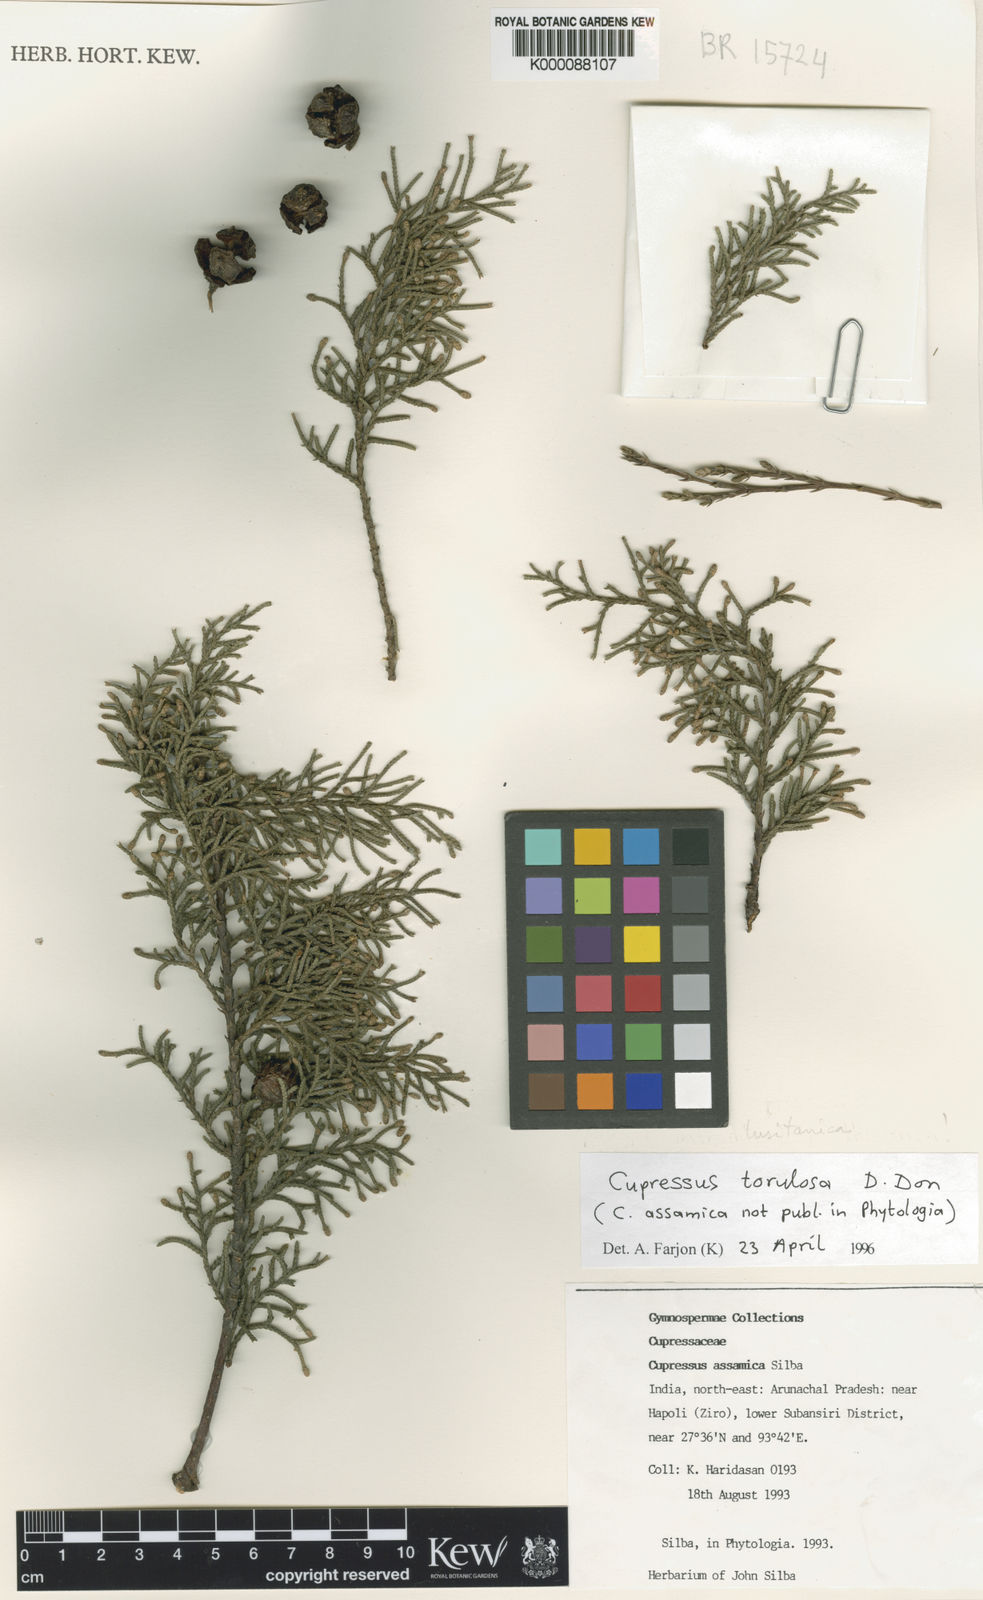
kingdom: Plantae
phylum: Tracheophyta
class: Pinopsida
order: Pinales
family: Cupressaceae
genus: Cupressus
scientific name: Cupressus
